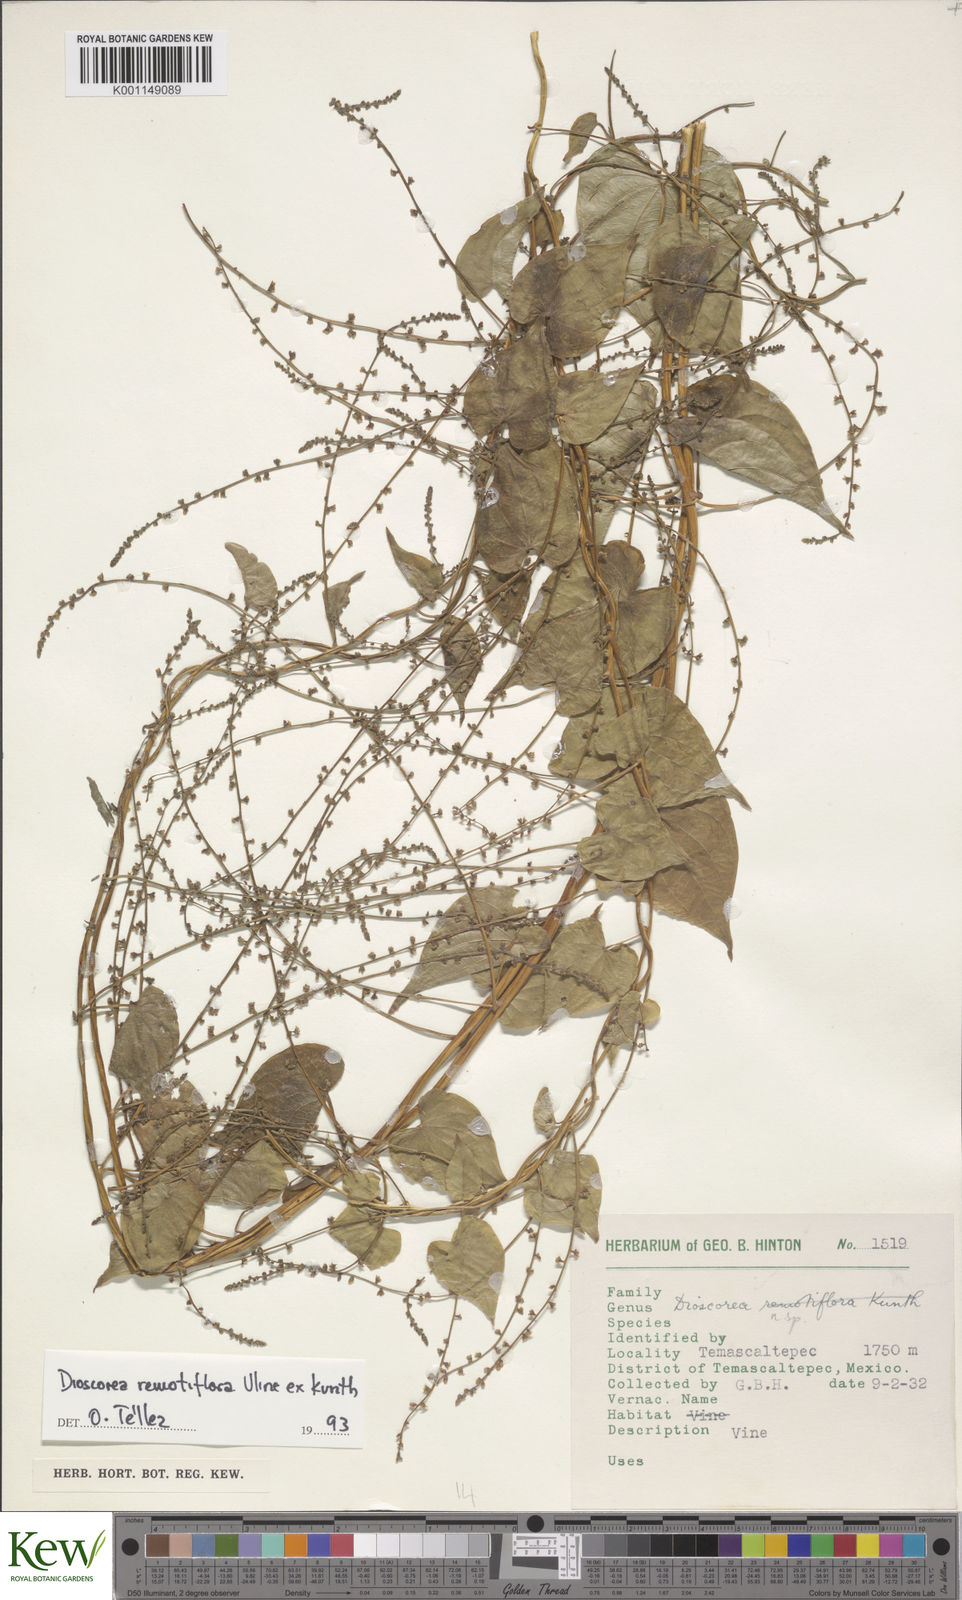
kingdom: Plantae
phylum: Tracheophyta
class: Liliopsida
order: Dioscoreales
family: Dioscoreaceae
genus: Dioscorea
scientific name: Dioscorea
